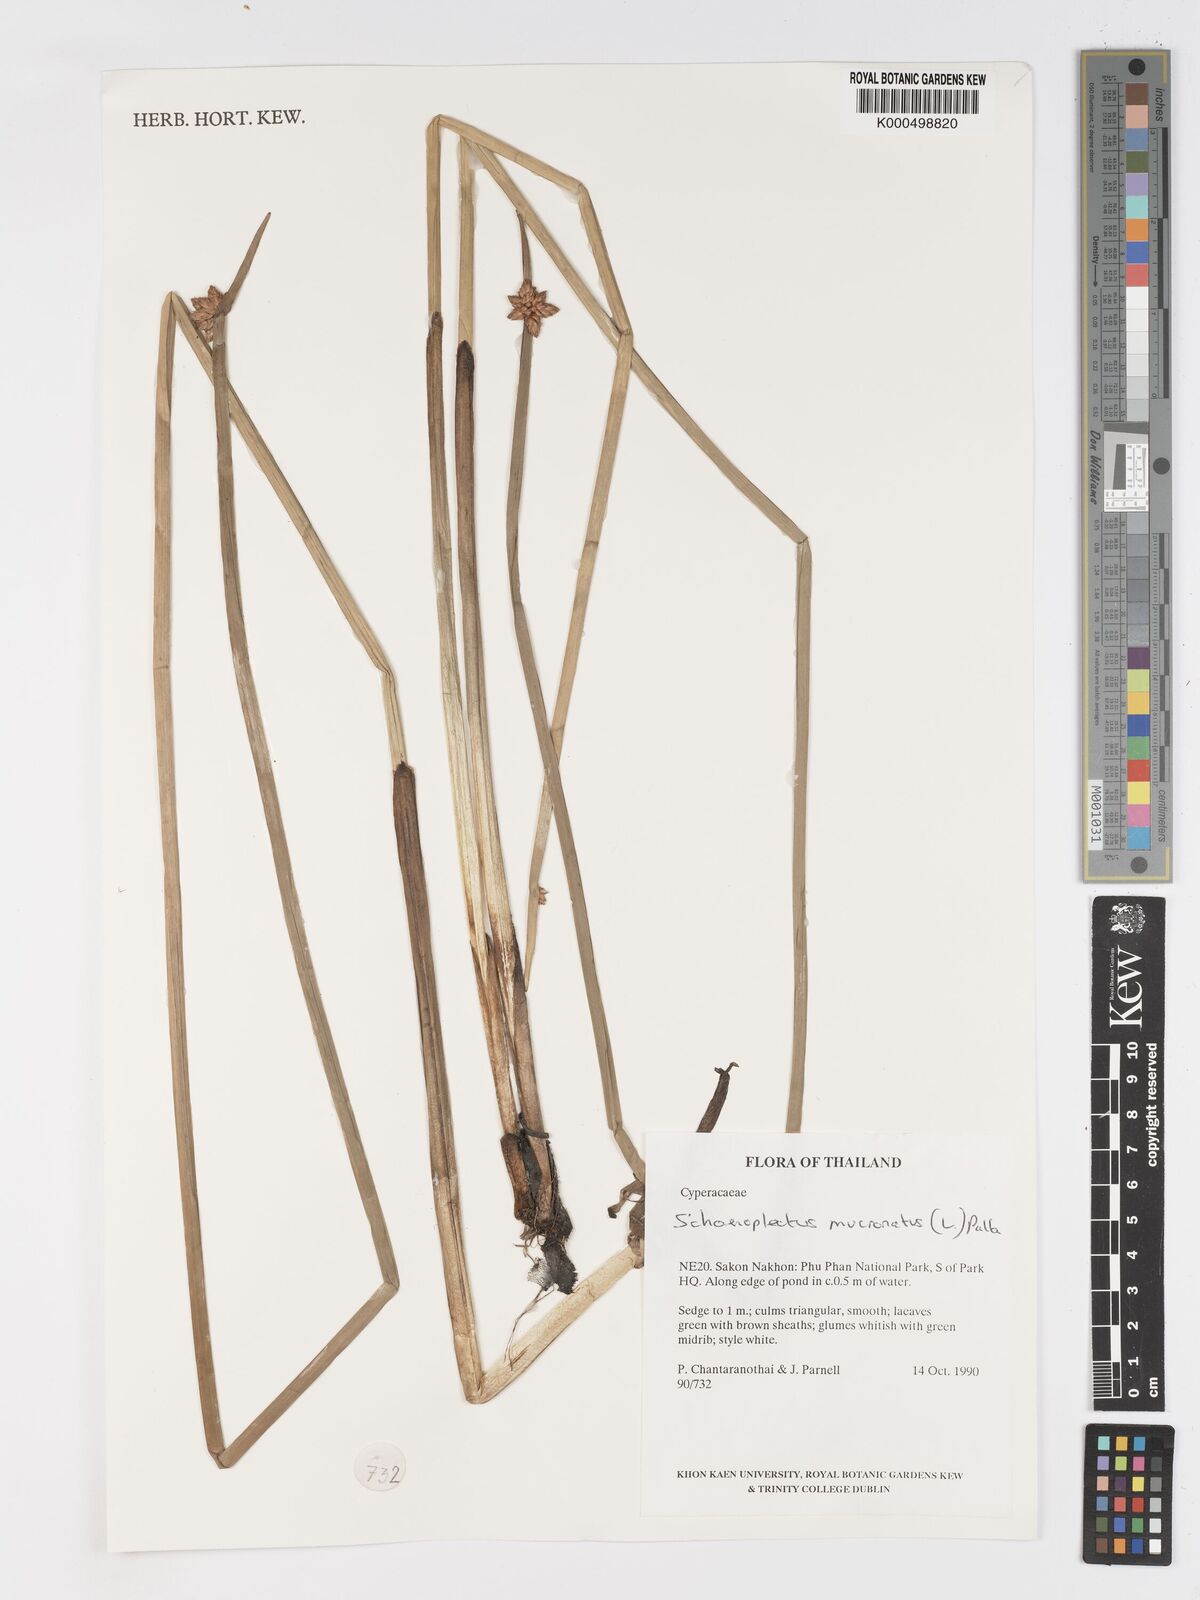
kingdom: Plantae
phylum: Tracheophyta
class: Liliopsida
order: Poales
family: Cyperaceae
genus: Schoenoplectiella
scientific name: Schoenoplectiella mucronata
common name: Bog bulrush
